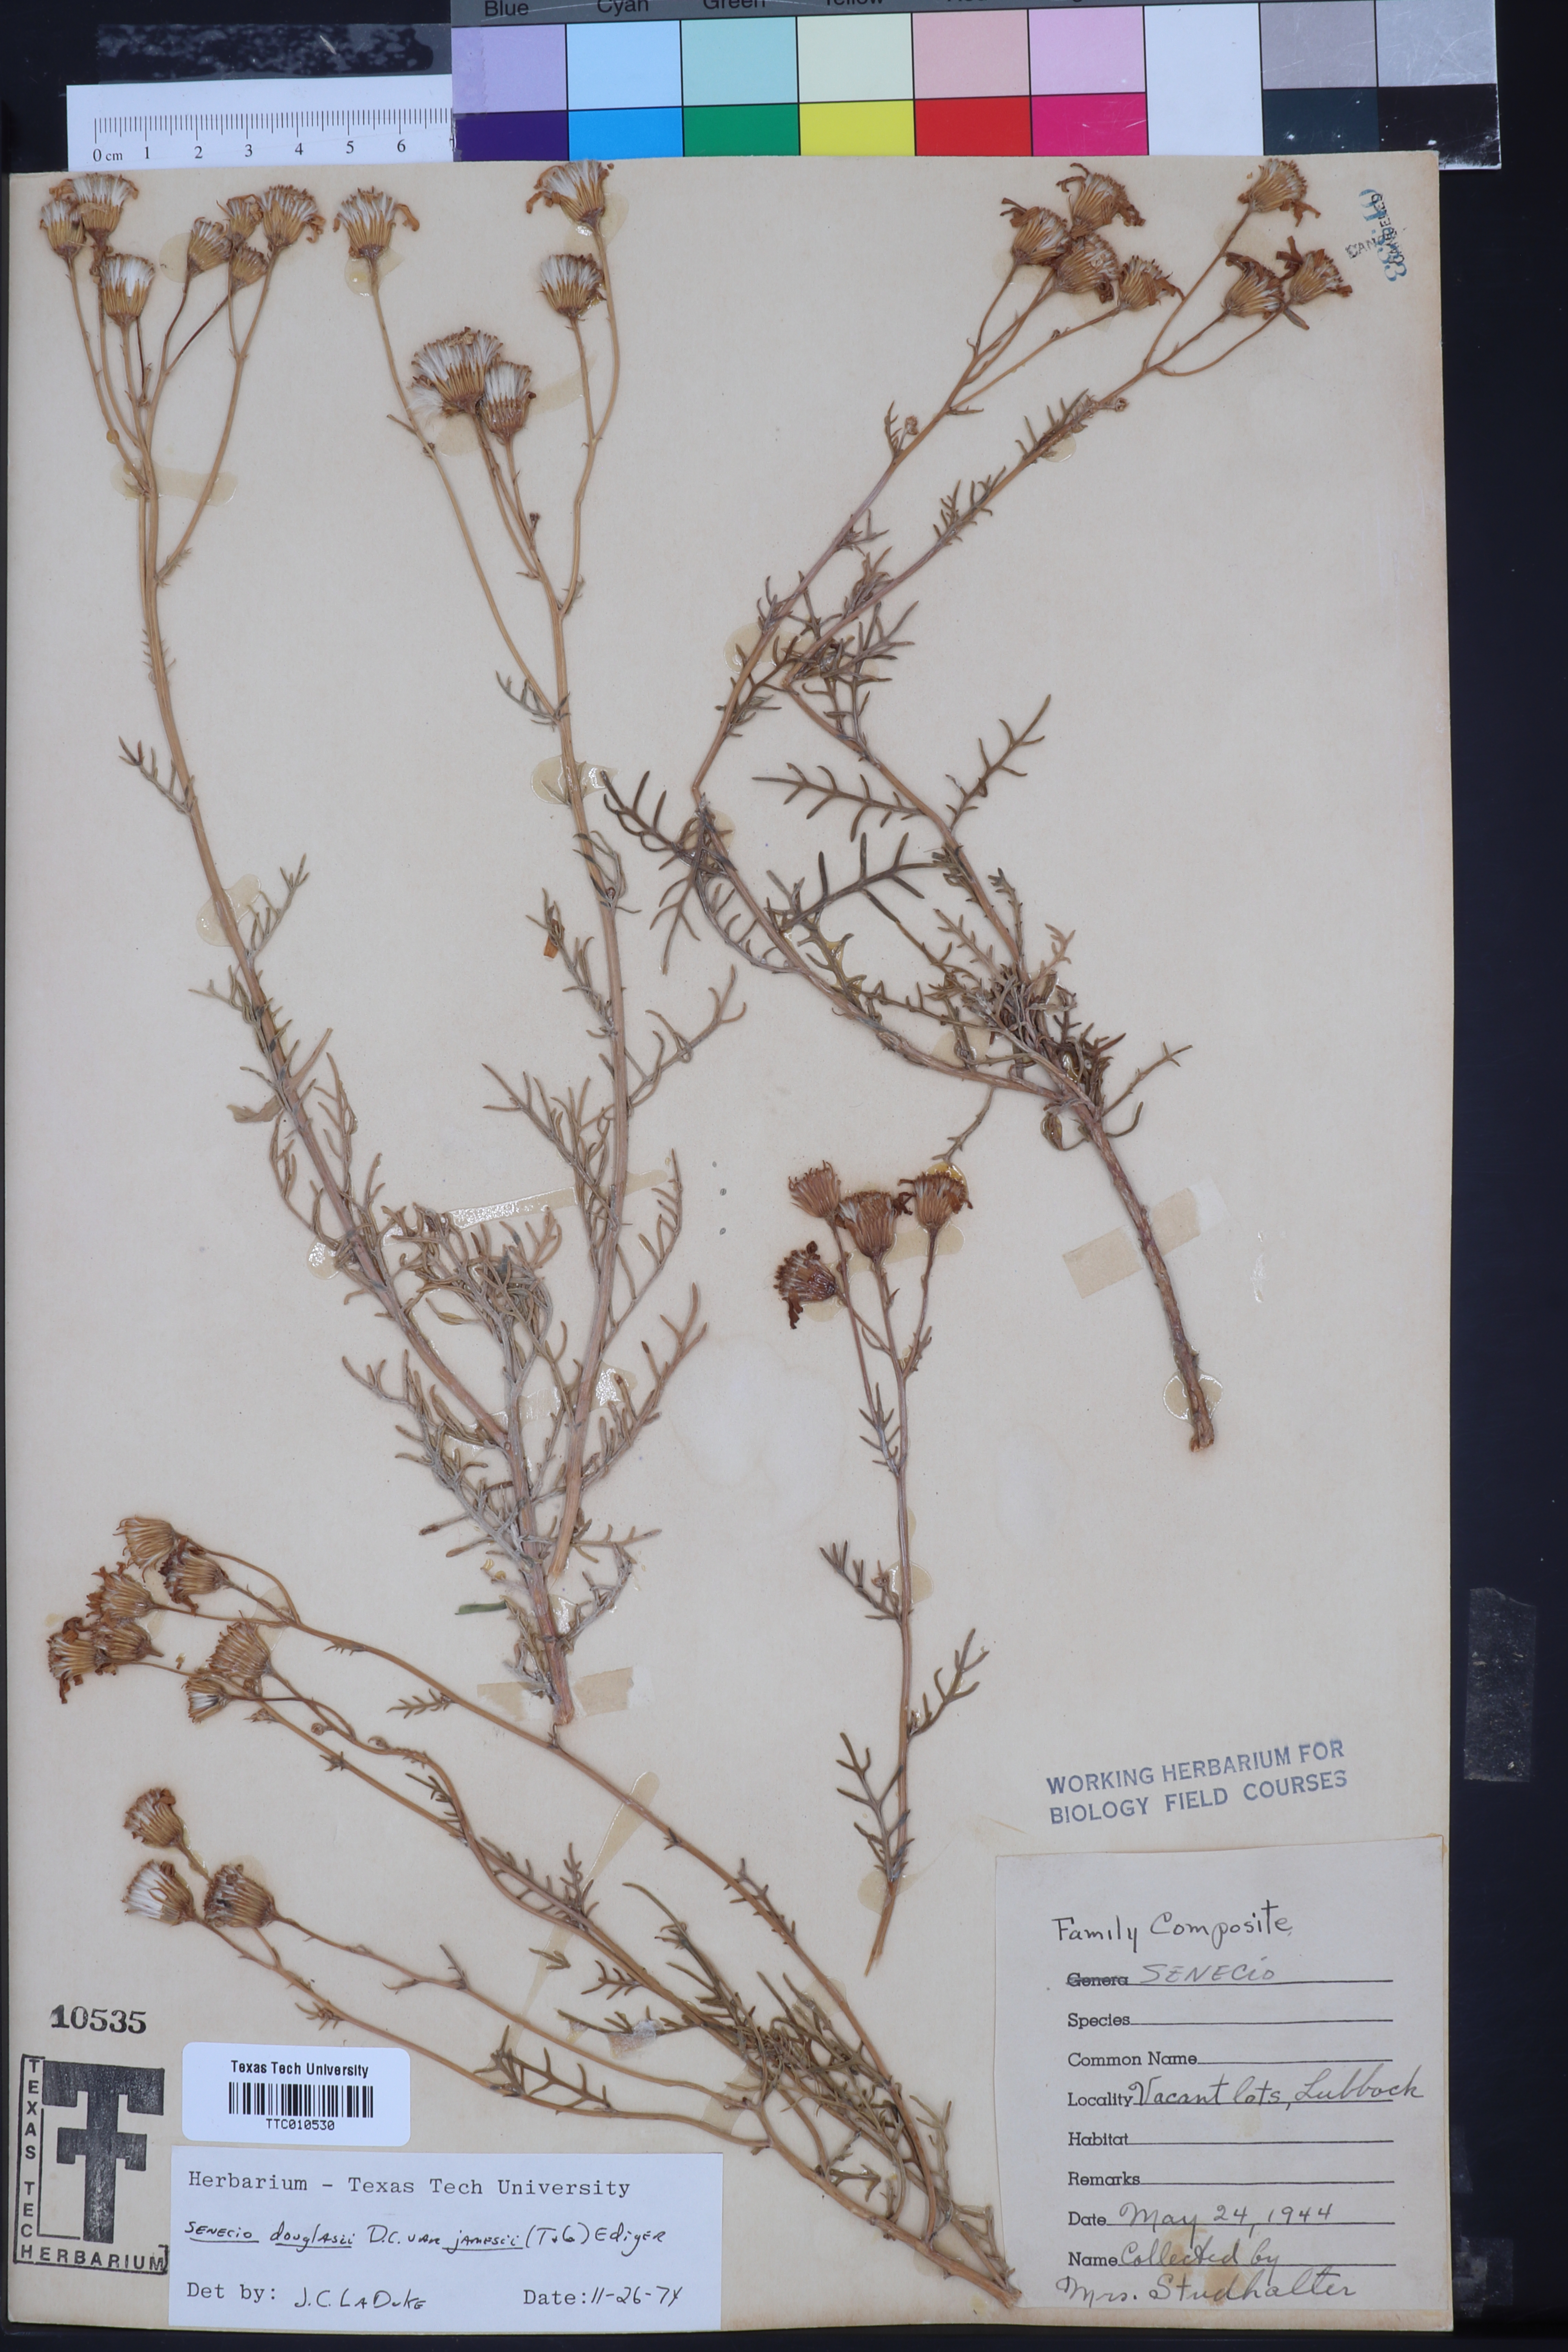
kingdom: Plantae
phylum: Tracheophyta
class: Magnoliopsida
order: Asterales
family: Asteraceae
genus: Senecio
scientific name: Senecio flaccidus
